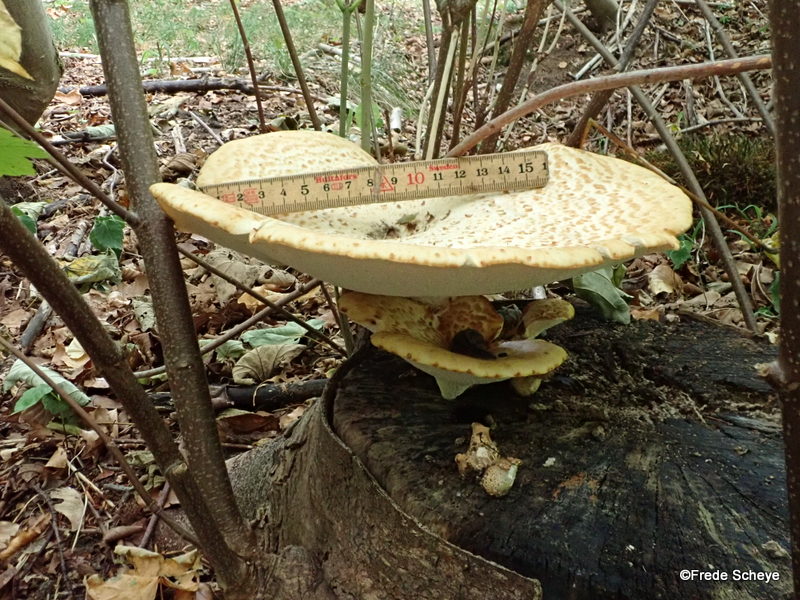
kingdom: Fungi
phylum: Basidiomycota
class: Agaricomycetes
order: Polyporales
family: Polyporaceae
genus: Cerioporus
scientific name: Cerioporus squamosus
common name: skællet stilkporesvamp
